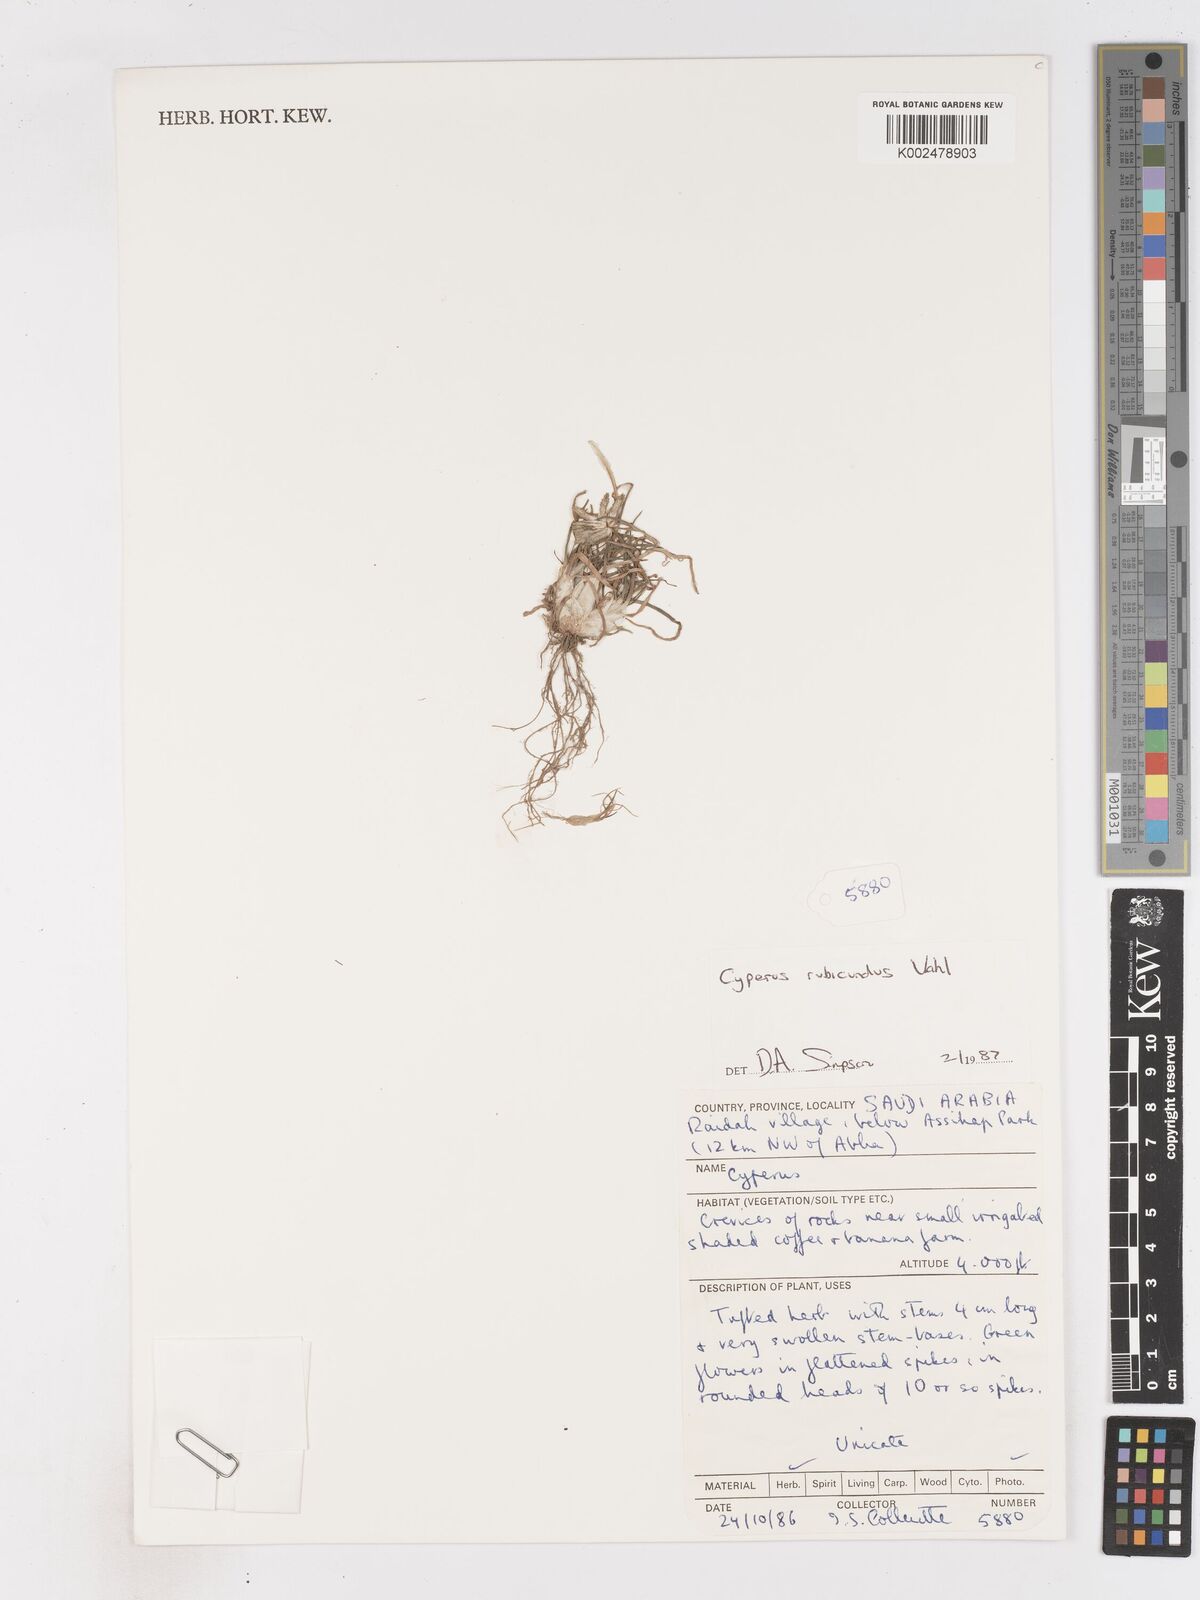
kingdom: Plantae
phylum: Tracheophyta
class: Liliopsida
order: Poales
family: Cyperaceae
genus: Cyperus
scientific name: Cyperus rubicundus
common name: Coco-grass
